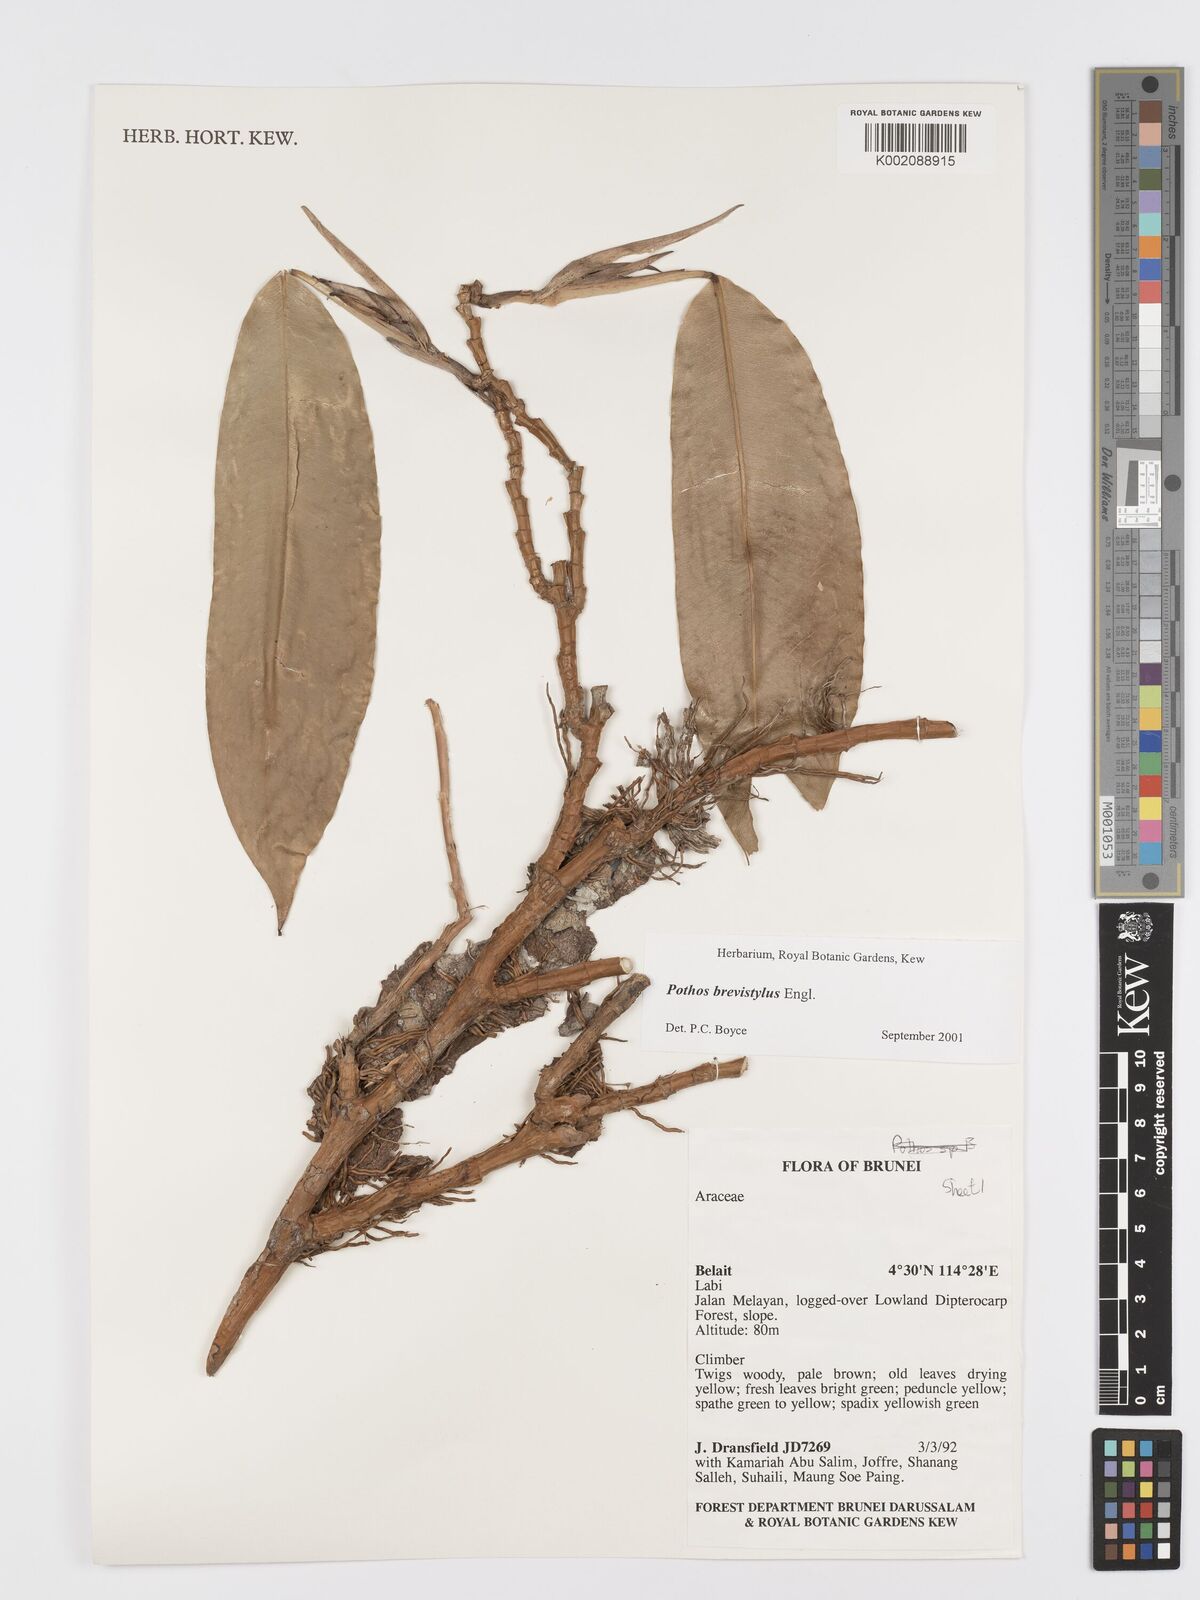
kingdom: Plantae
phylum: Tracheophyta
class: Liliopsida
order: Alismatales
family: Araceae
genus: Pothos
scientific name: Pothos brevistylus
